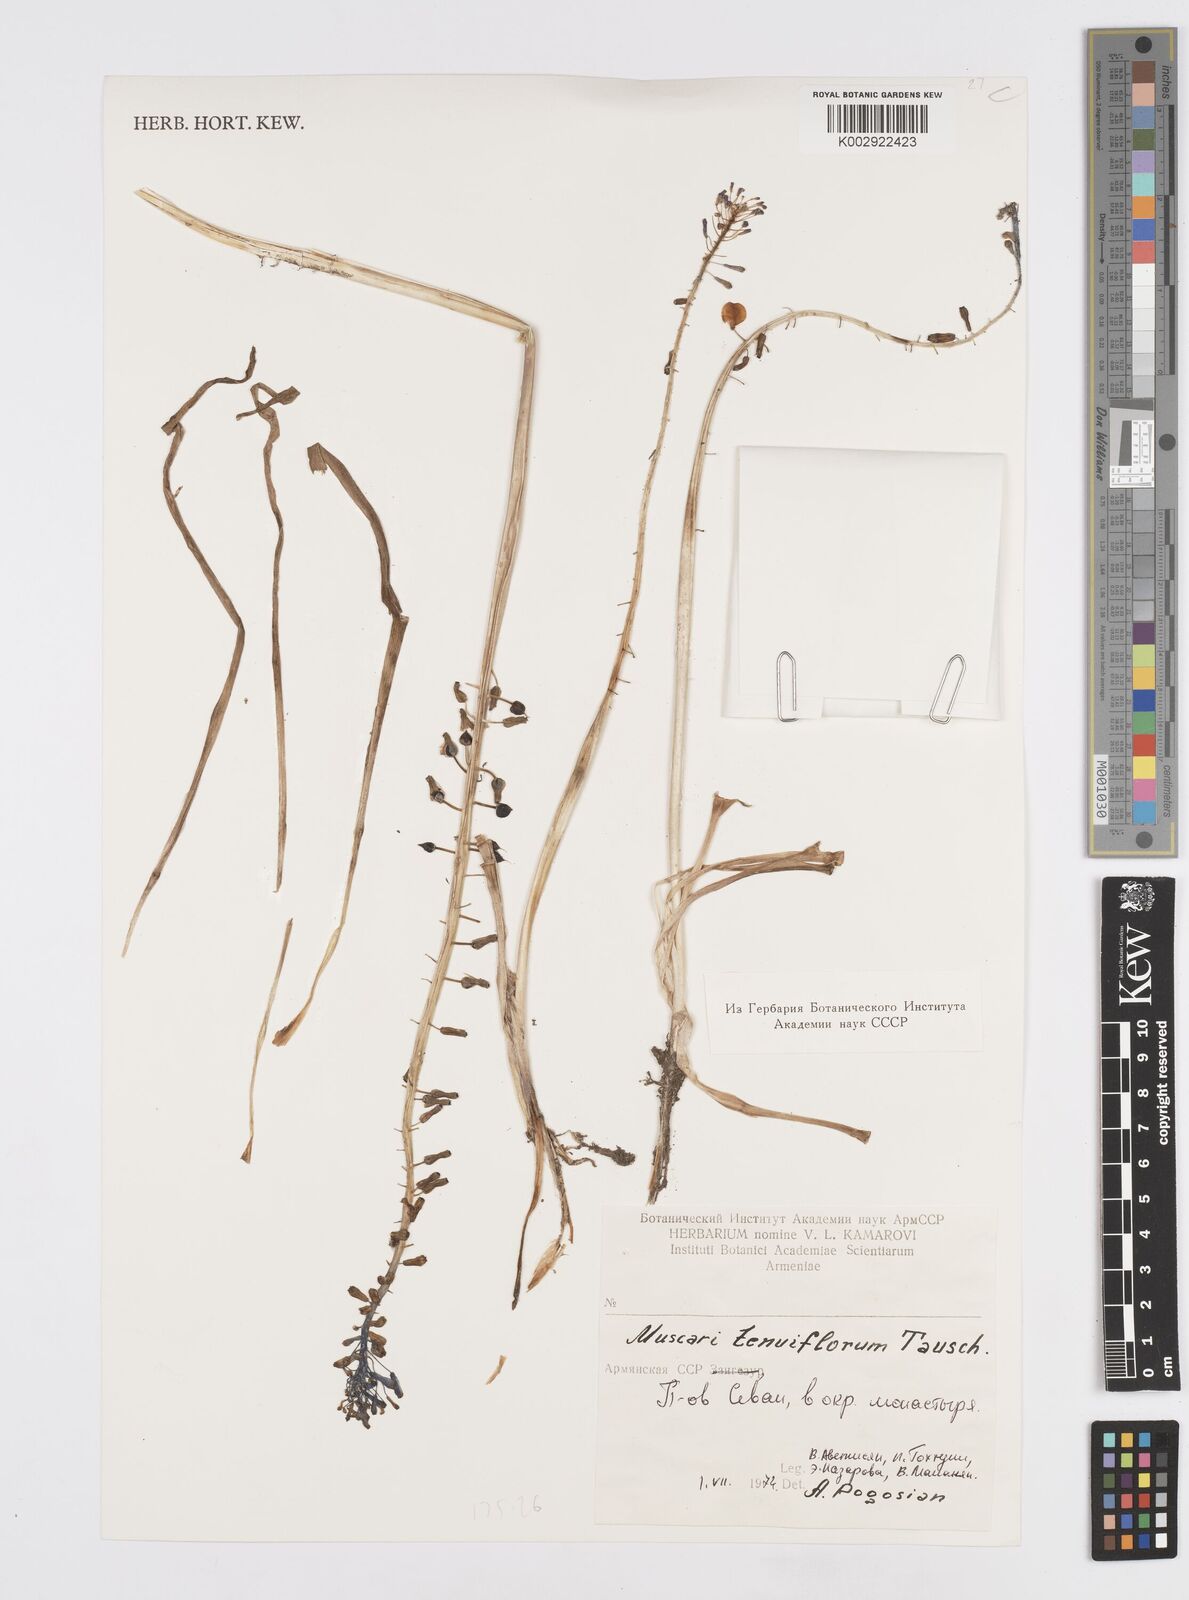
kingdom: Plantae
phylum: Tracheophyta
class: Liliopsida
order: Asparagales
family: Asparagaceae
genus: Muscari
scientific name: Muscari tenuiflorum
